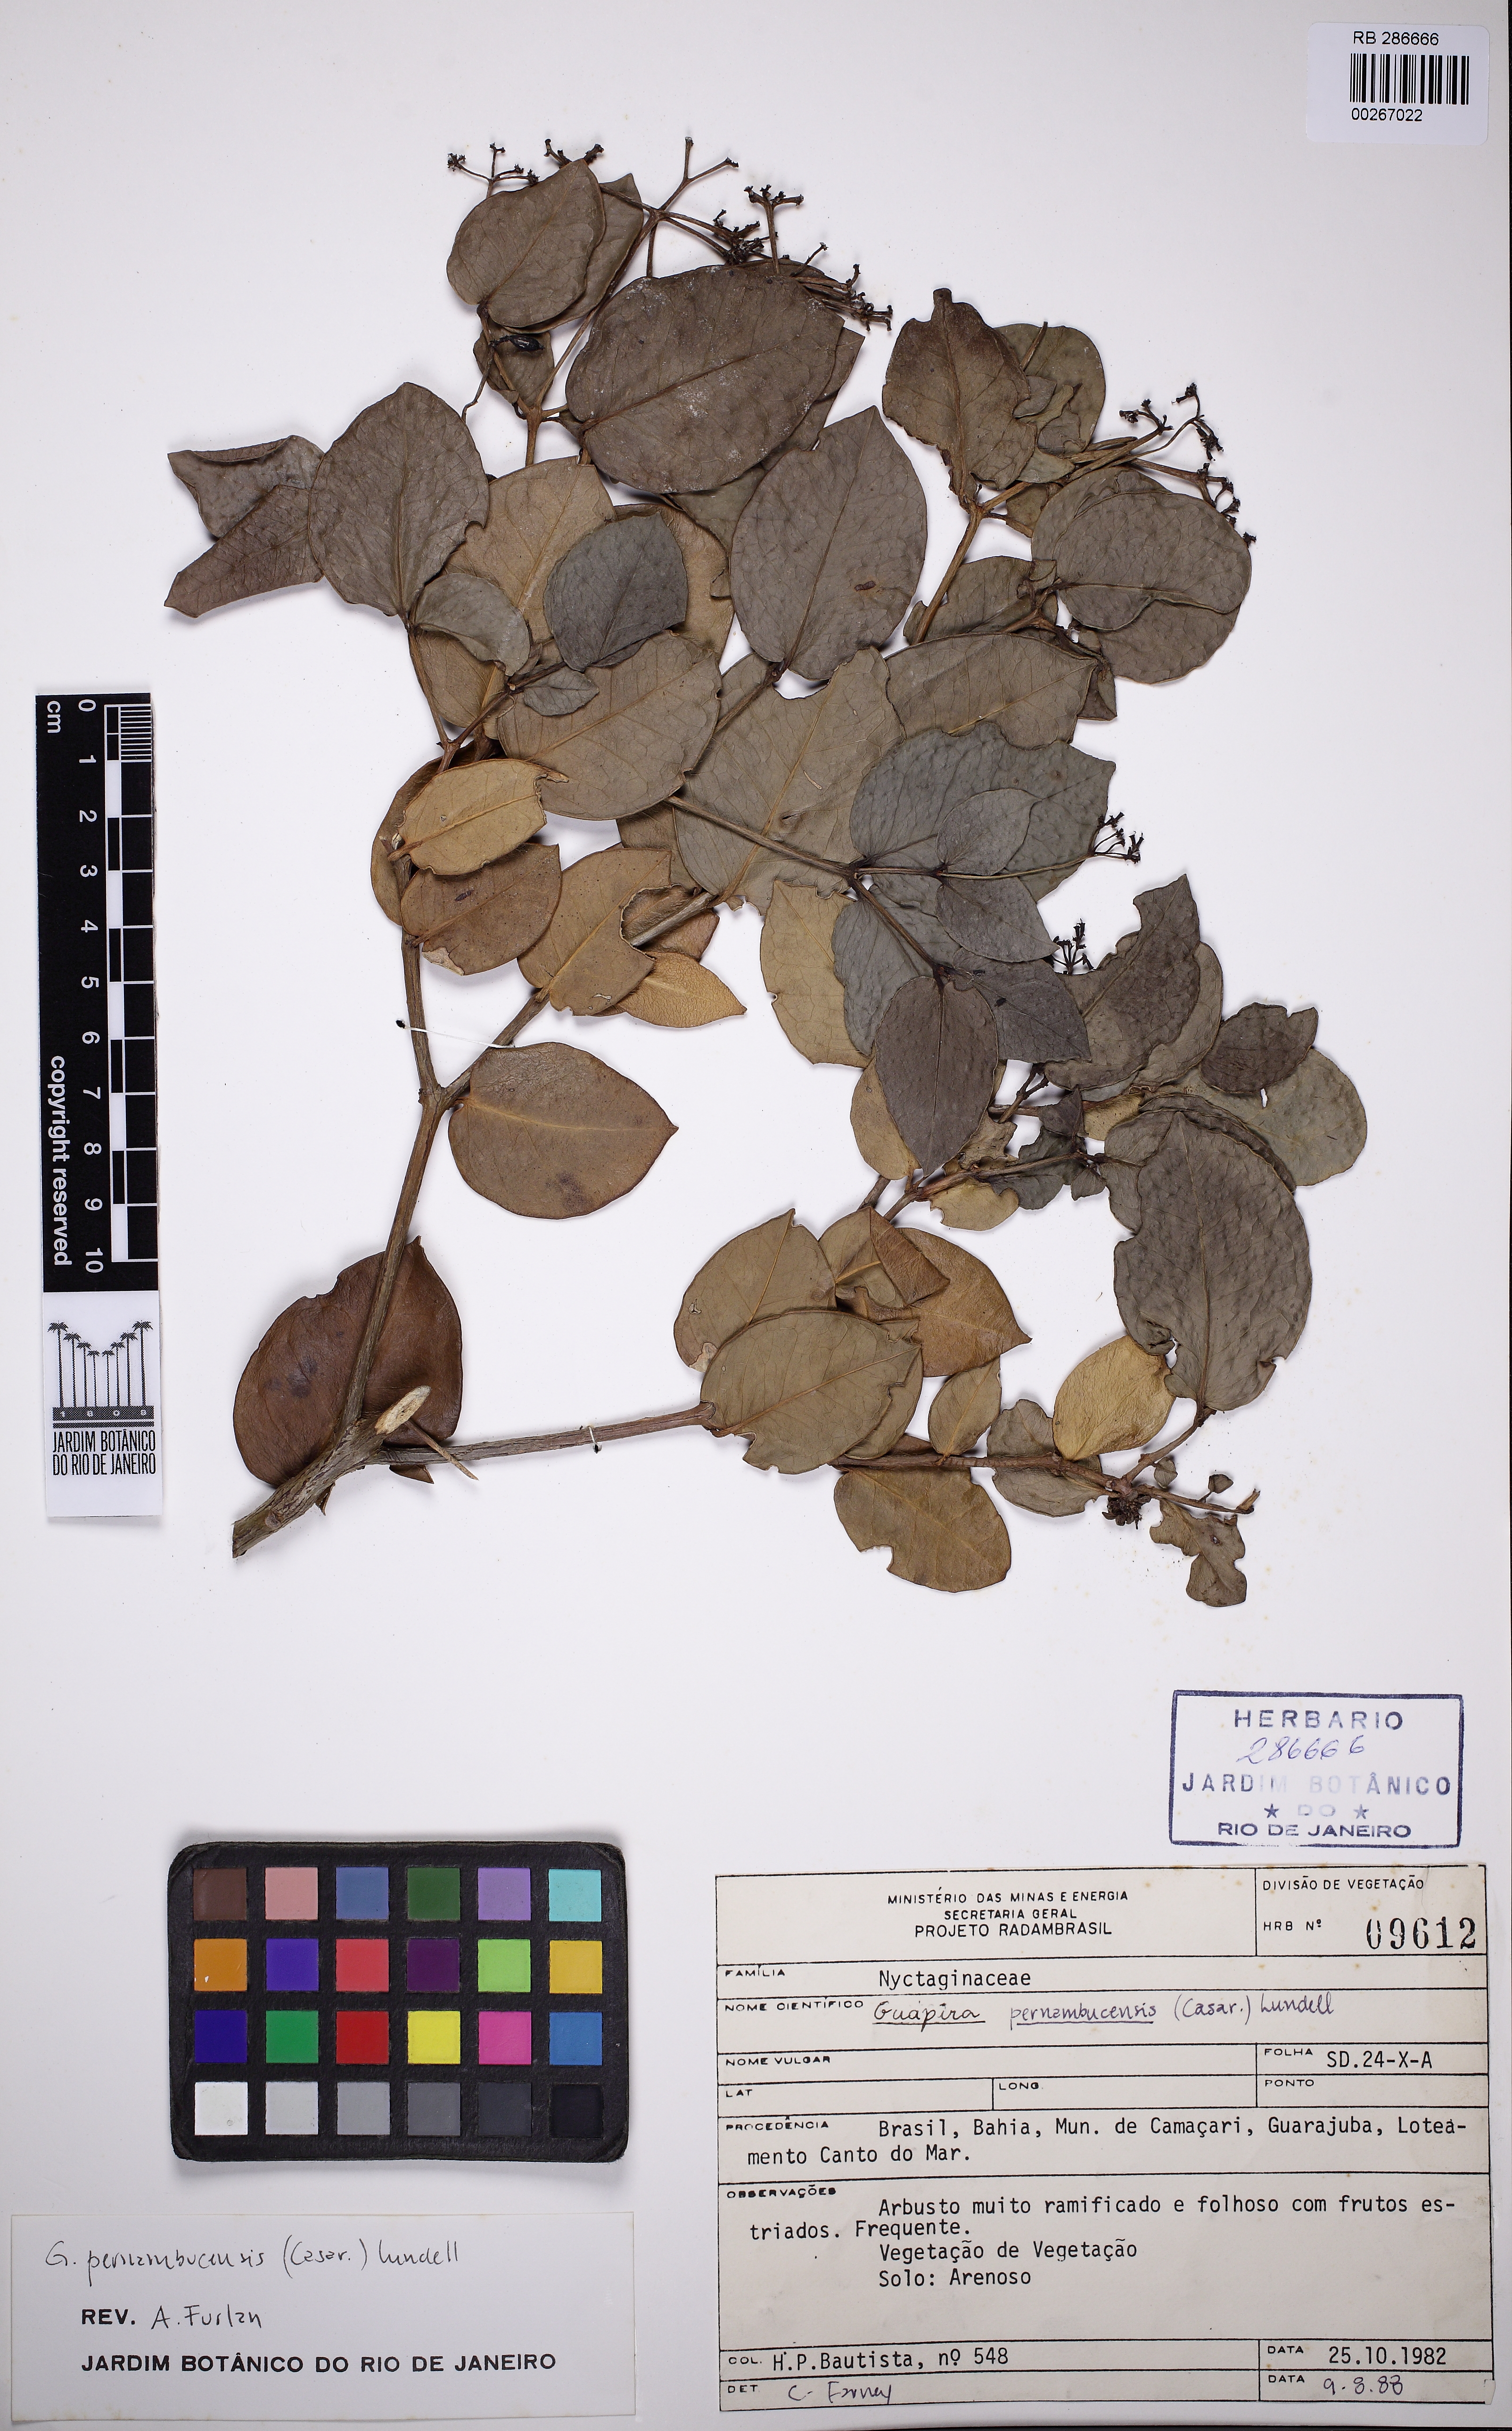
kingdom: Plantae
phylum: Tracheophyta
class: Magnoliopsida
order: Caryophyllales
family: Nyctaginaceae
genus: Guapira
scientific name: Guapira pernambucensis
